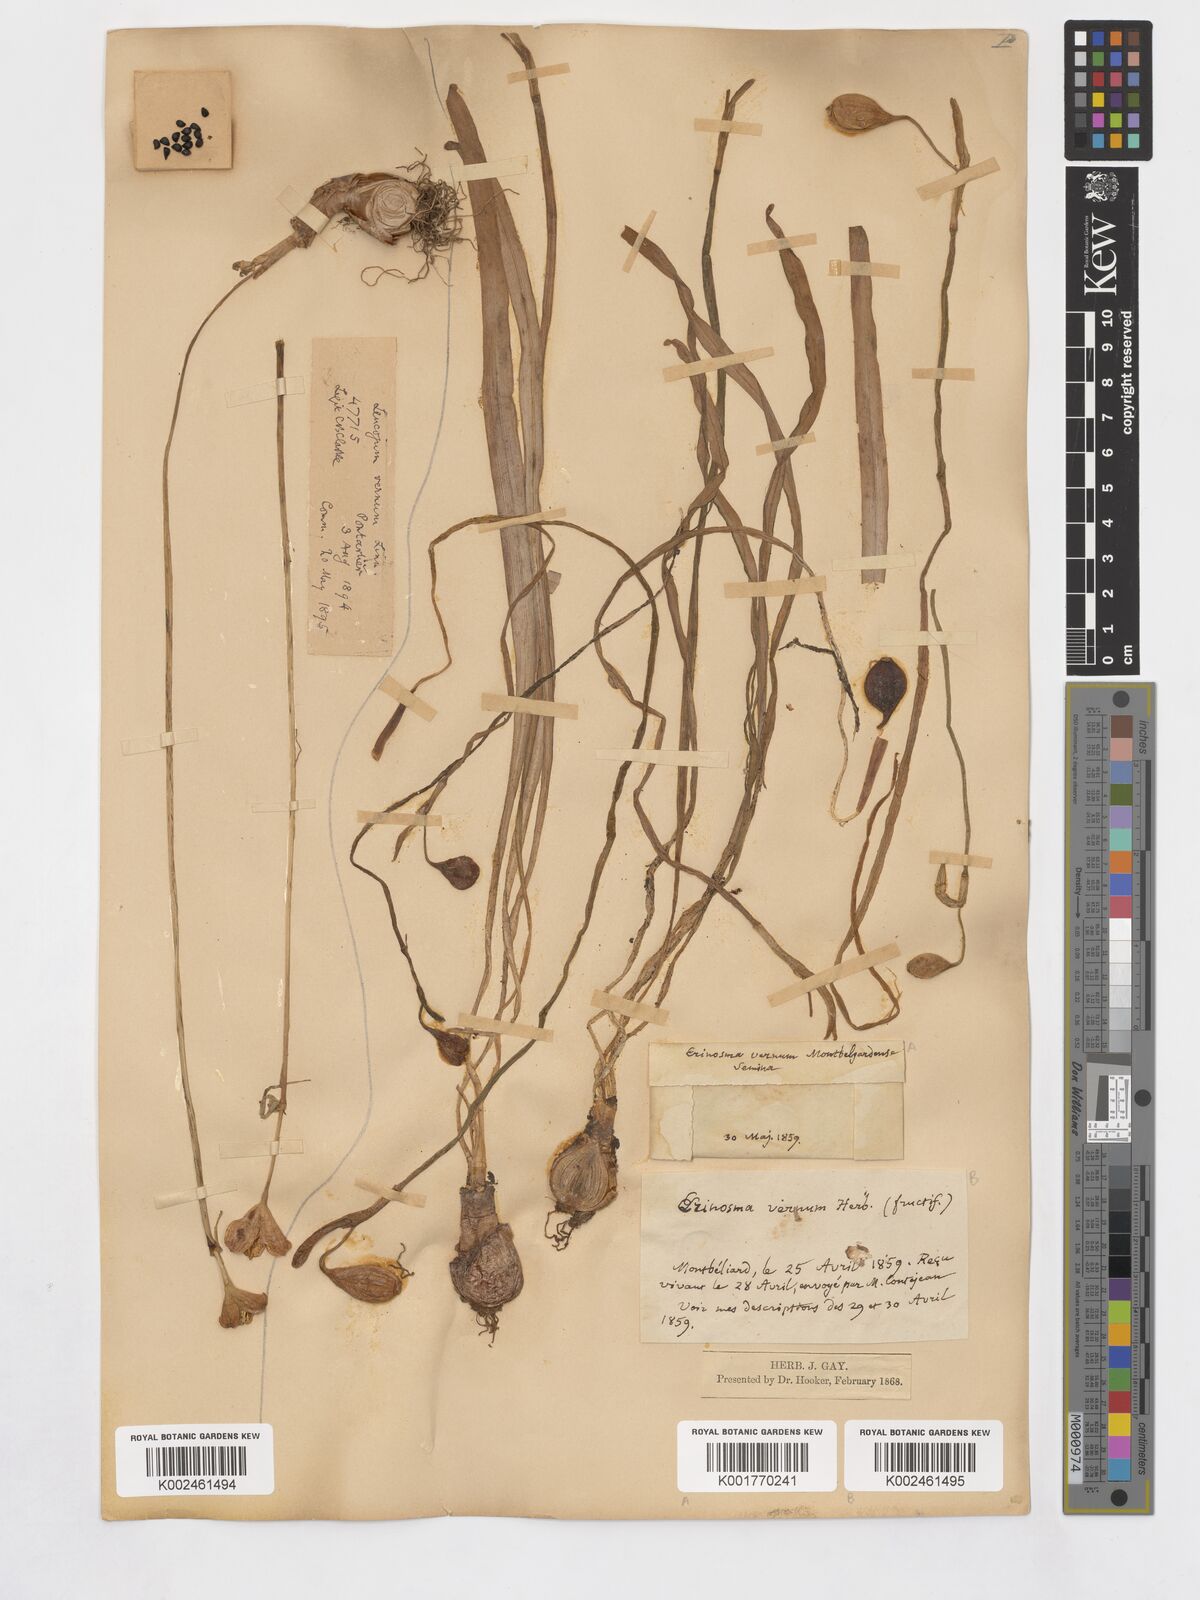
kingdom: Plantae
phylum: Tracheophyta
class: Liliopsida
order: Asparagales
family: Amaryllidaceae
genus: Leucojum
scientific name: Leucojum vernum
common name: Spring snowflake
